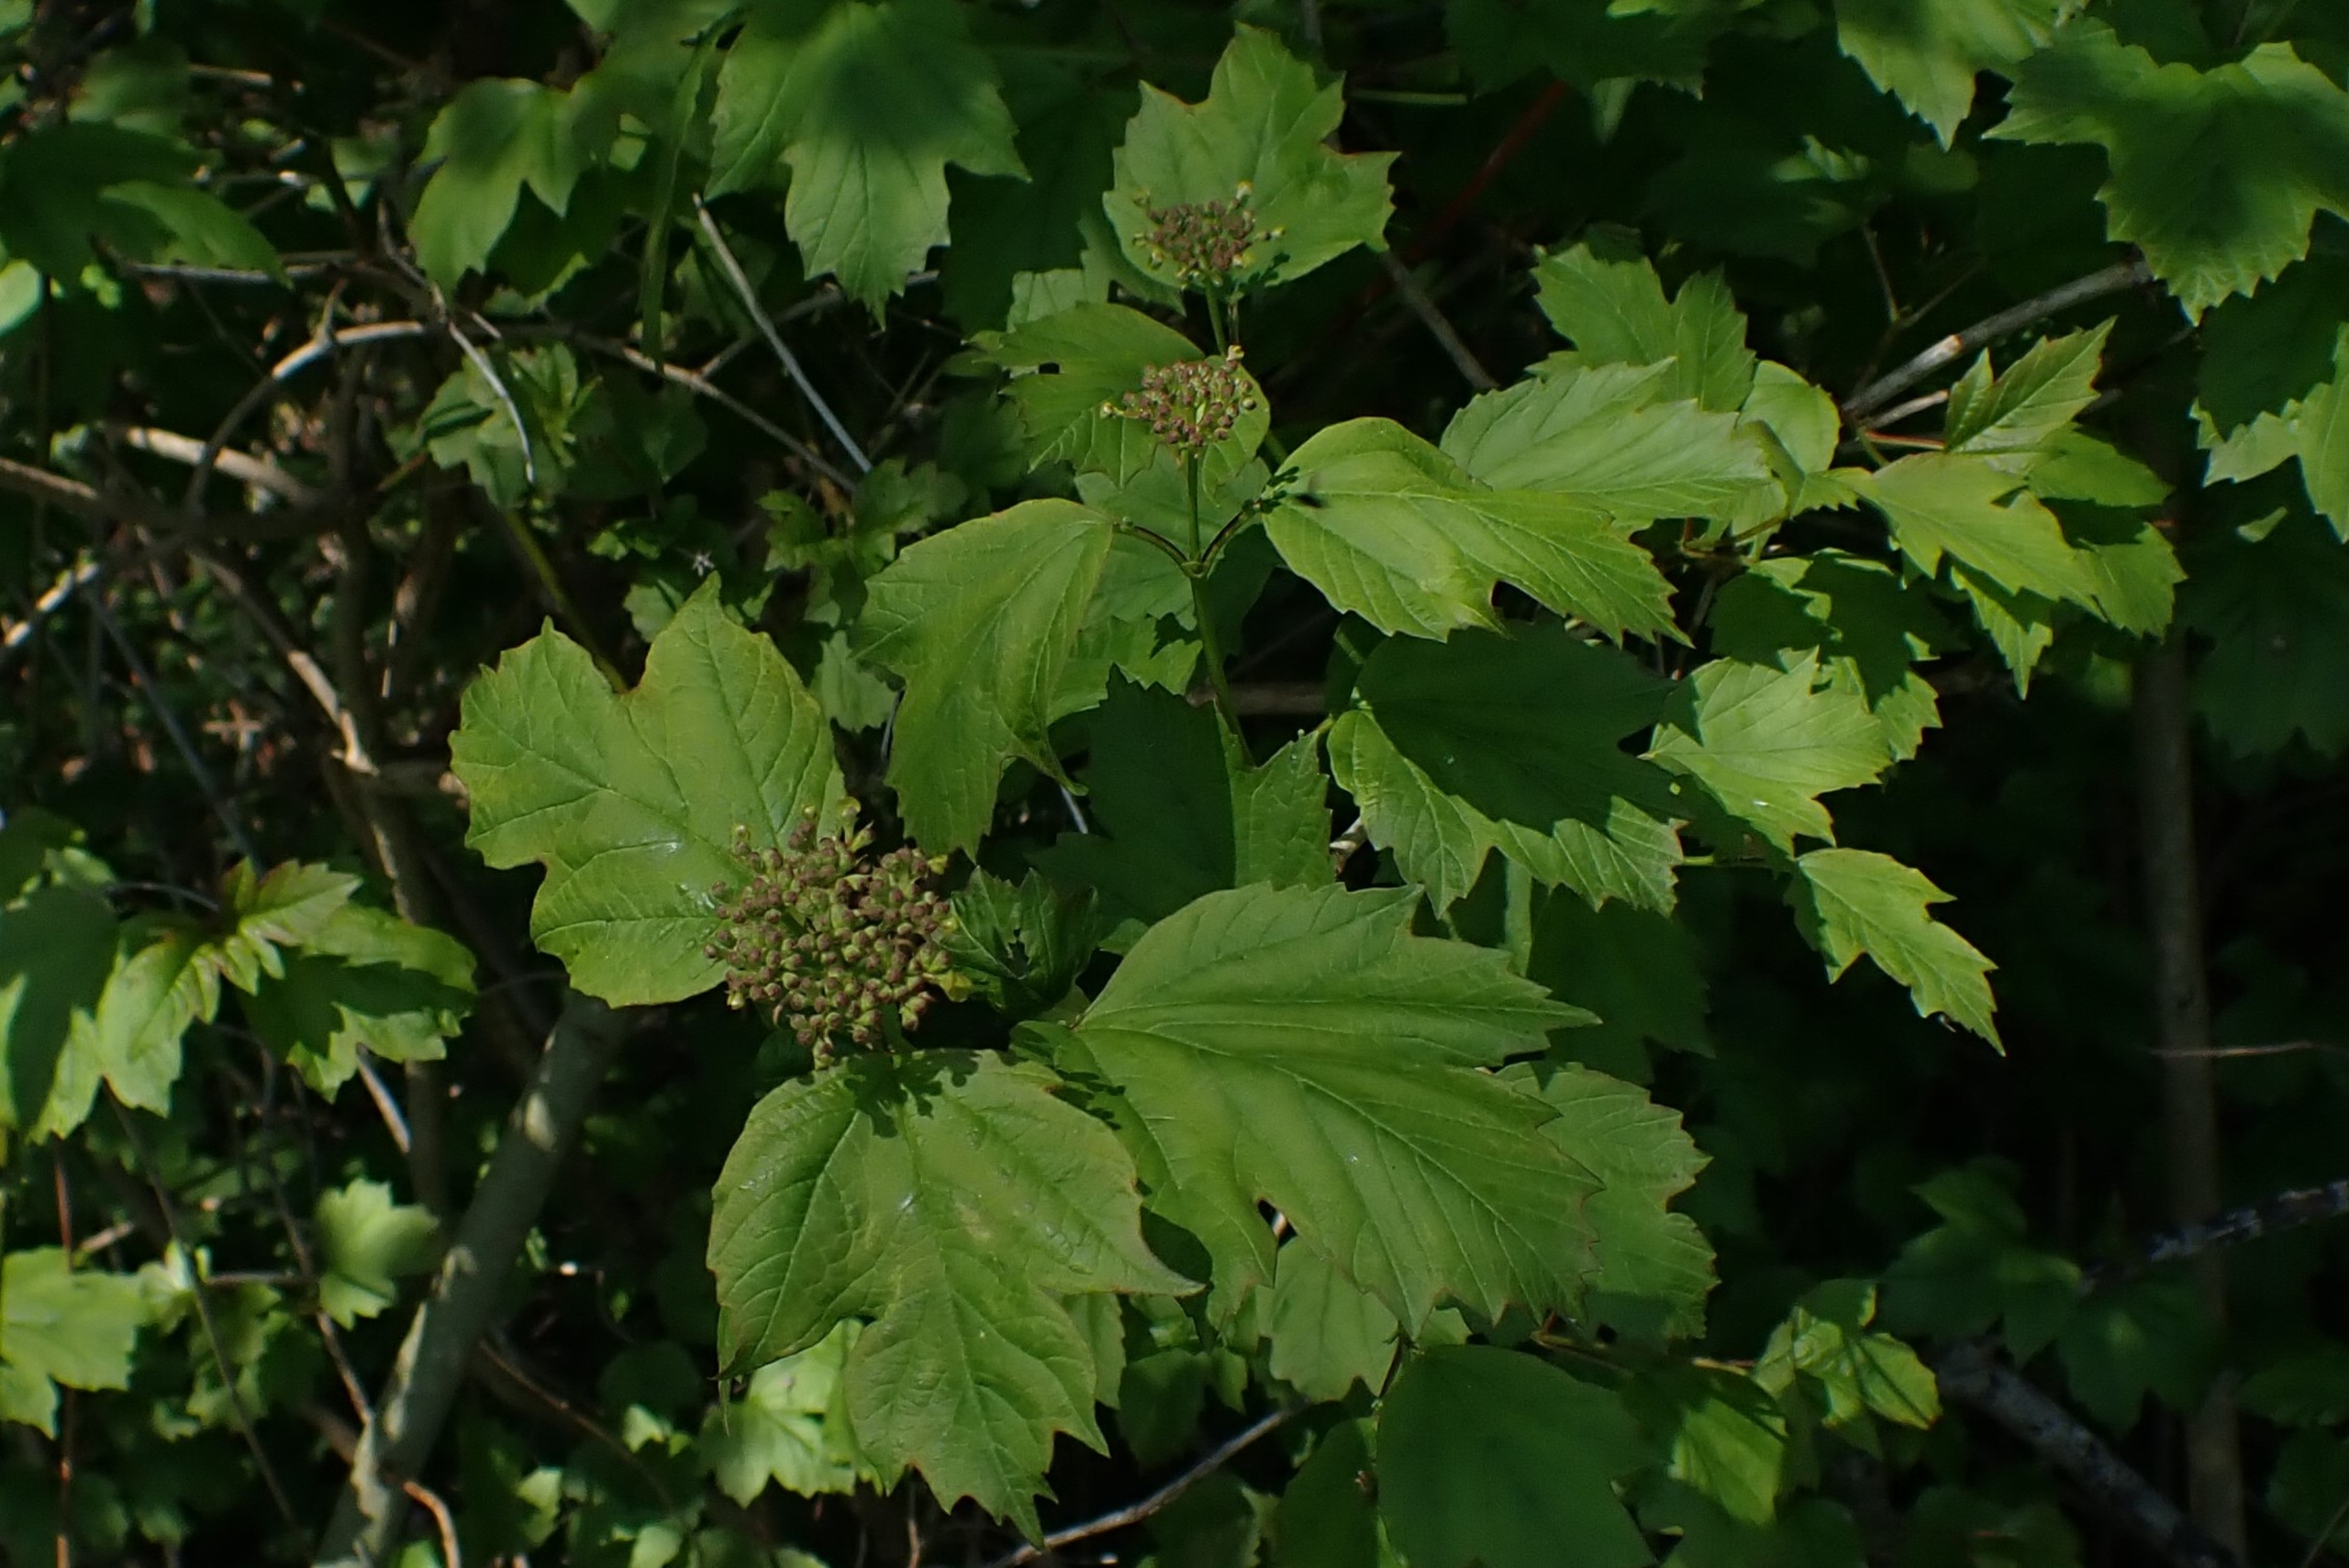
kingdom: Plantae
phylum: Tracheophyta
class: Magnoliopsida
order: Dipsacales
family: Viburnaceae
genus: Viburnum
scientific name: Viburnum opulus
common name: Kvalkved
